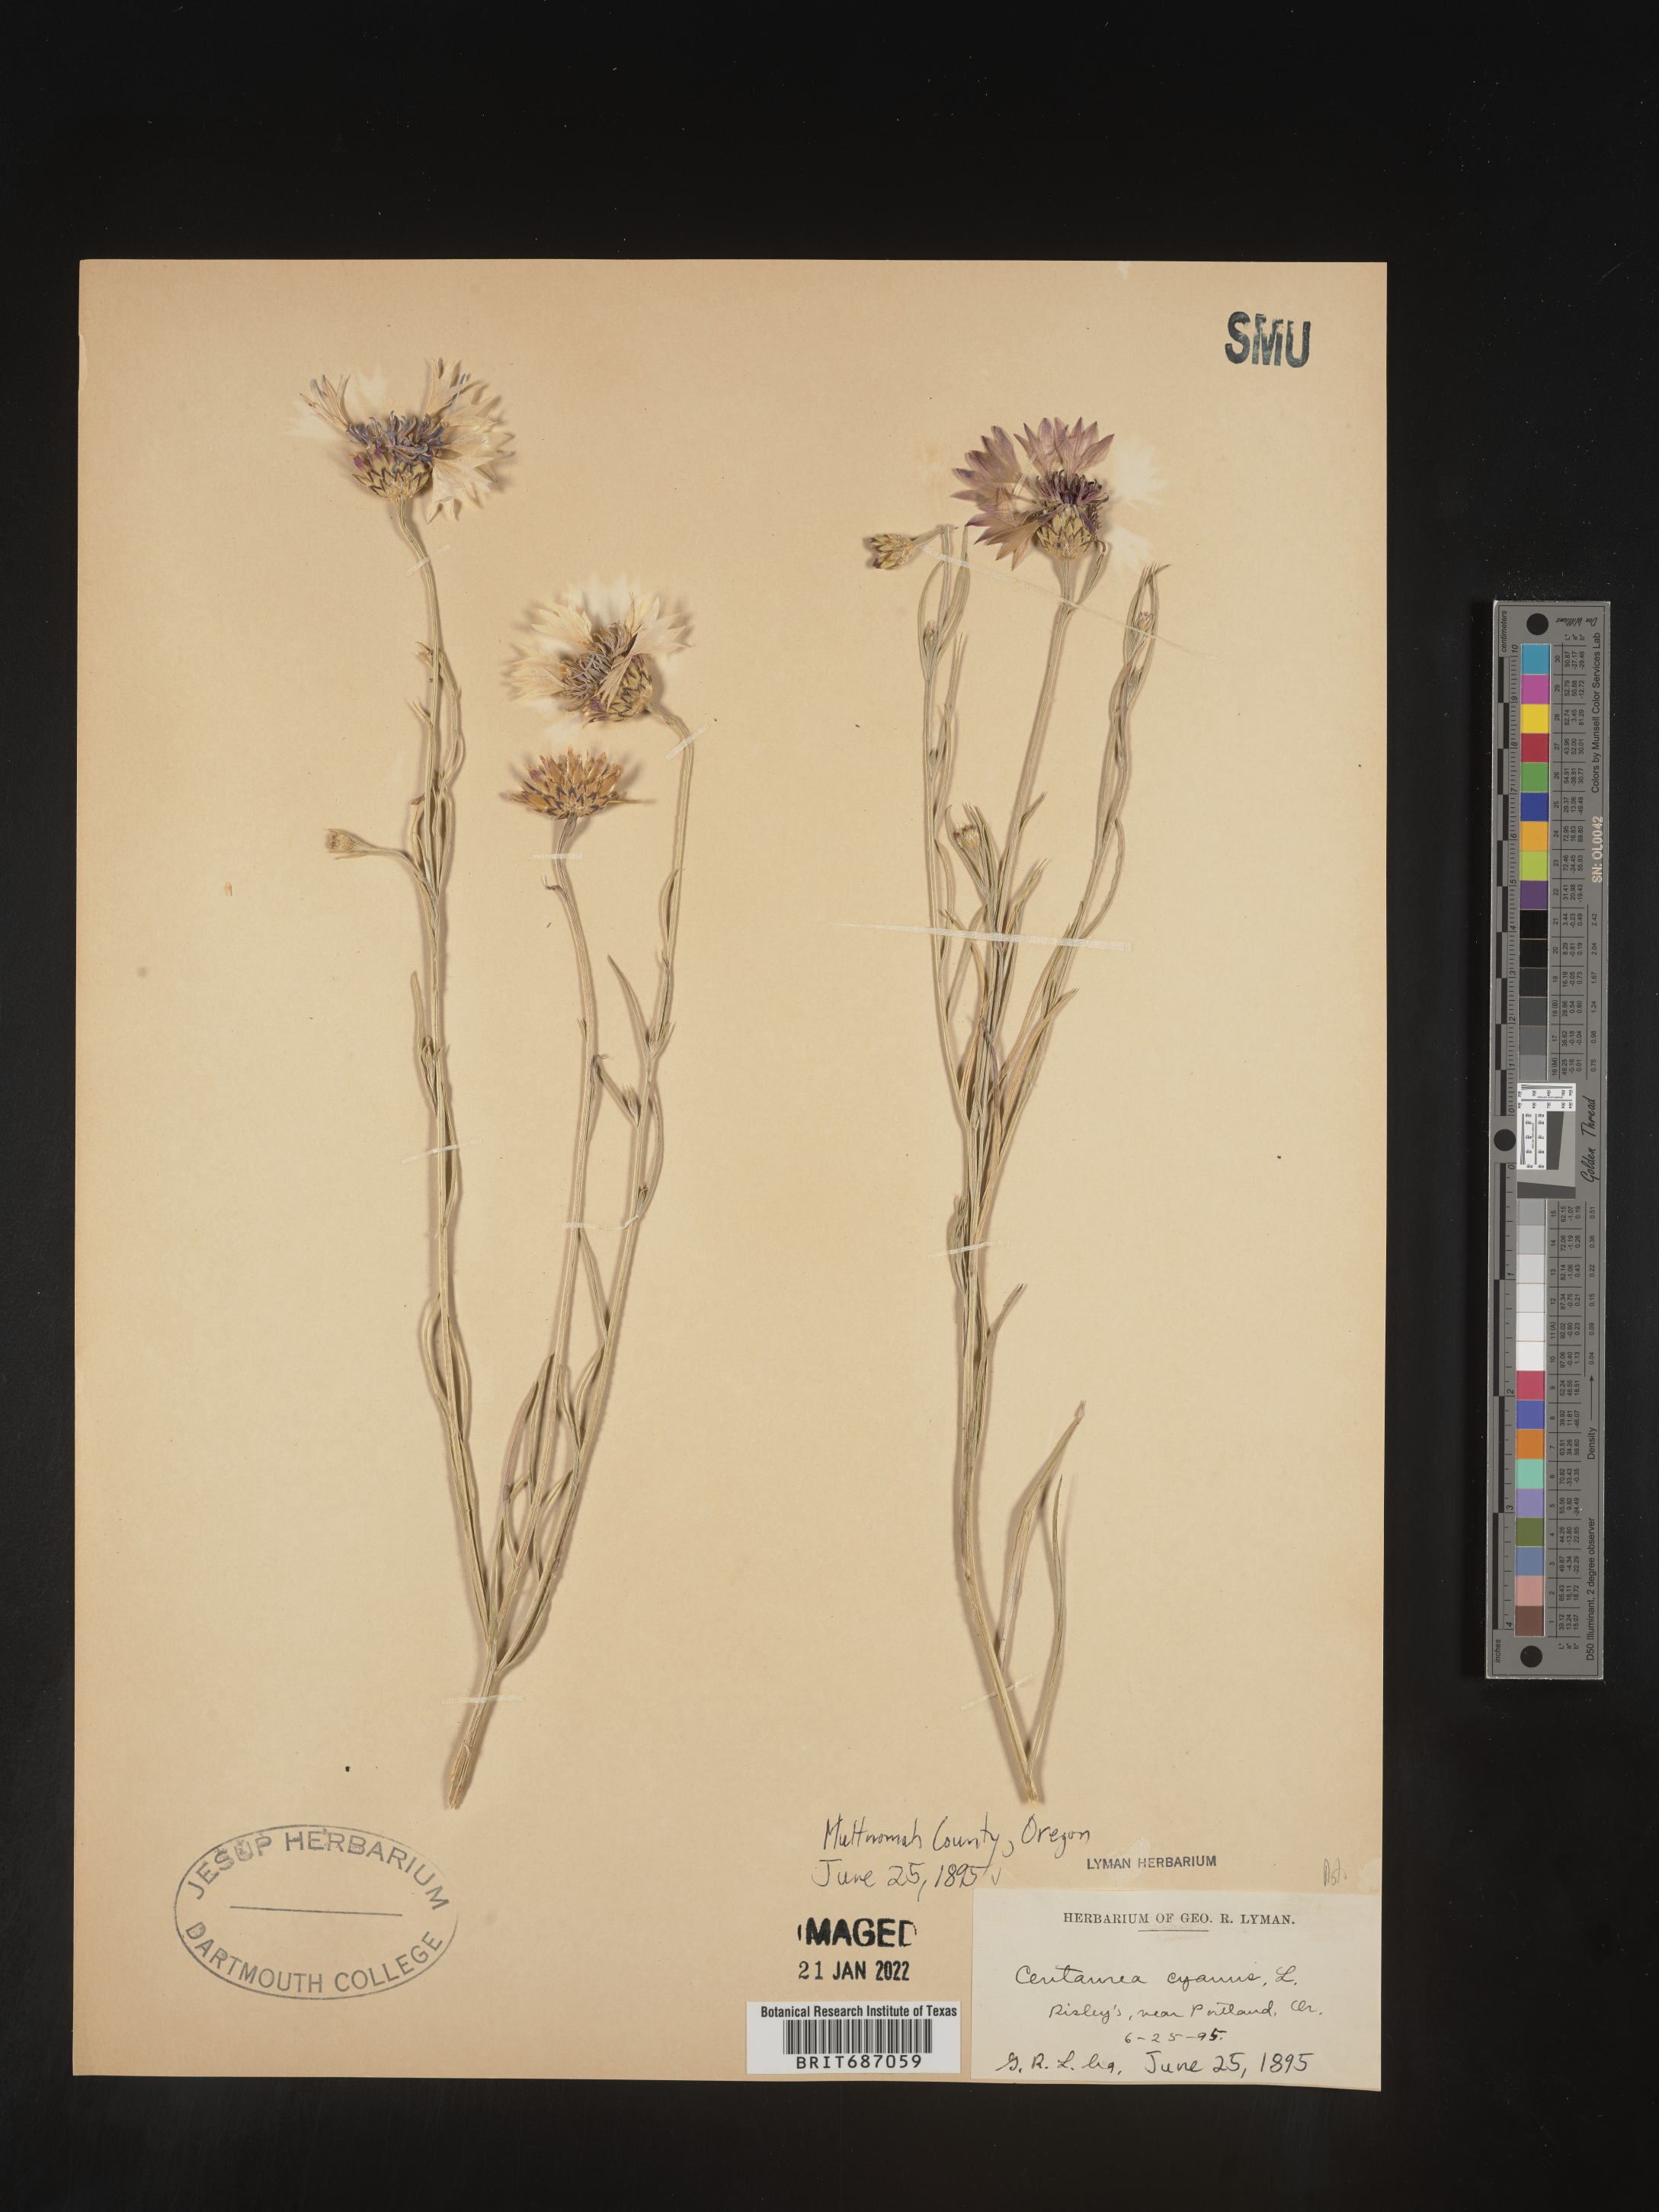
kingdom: Plantae
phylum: Tracheophyta
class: Magnoliopsida
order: Asterales
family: Asteraceae
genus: Centaurea
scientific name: Centaurea cyanus
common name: Cornflower
